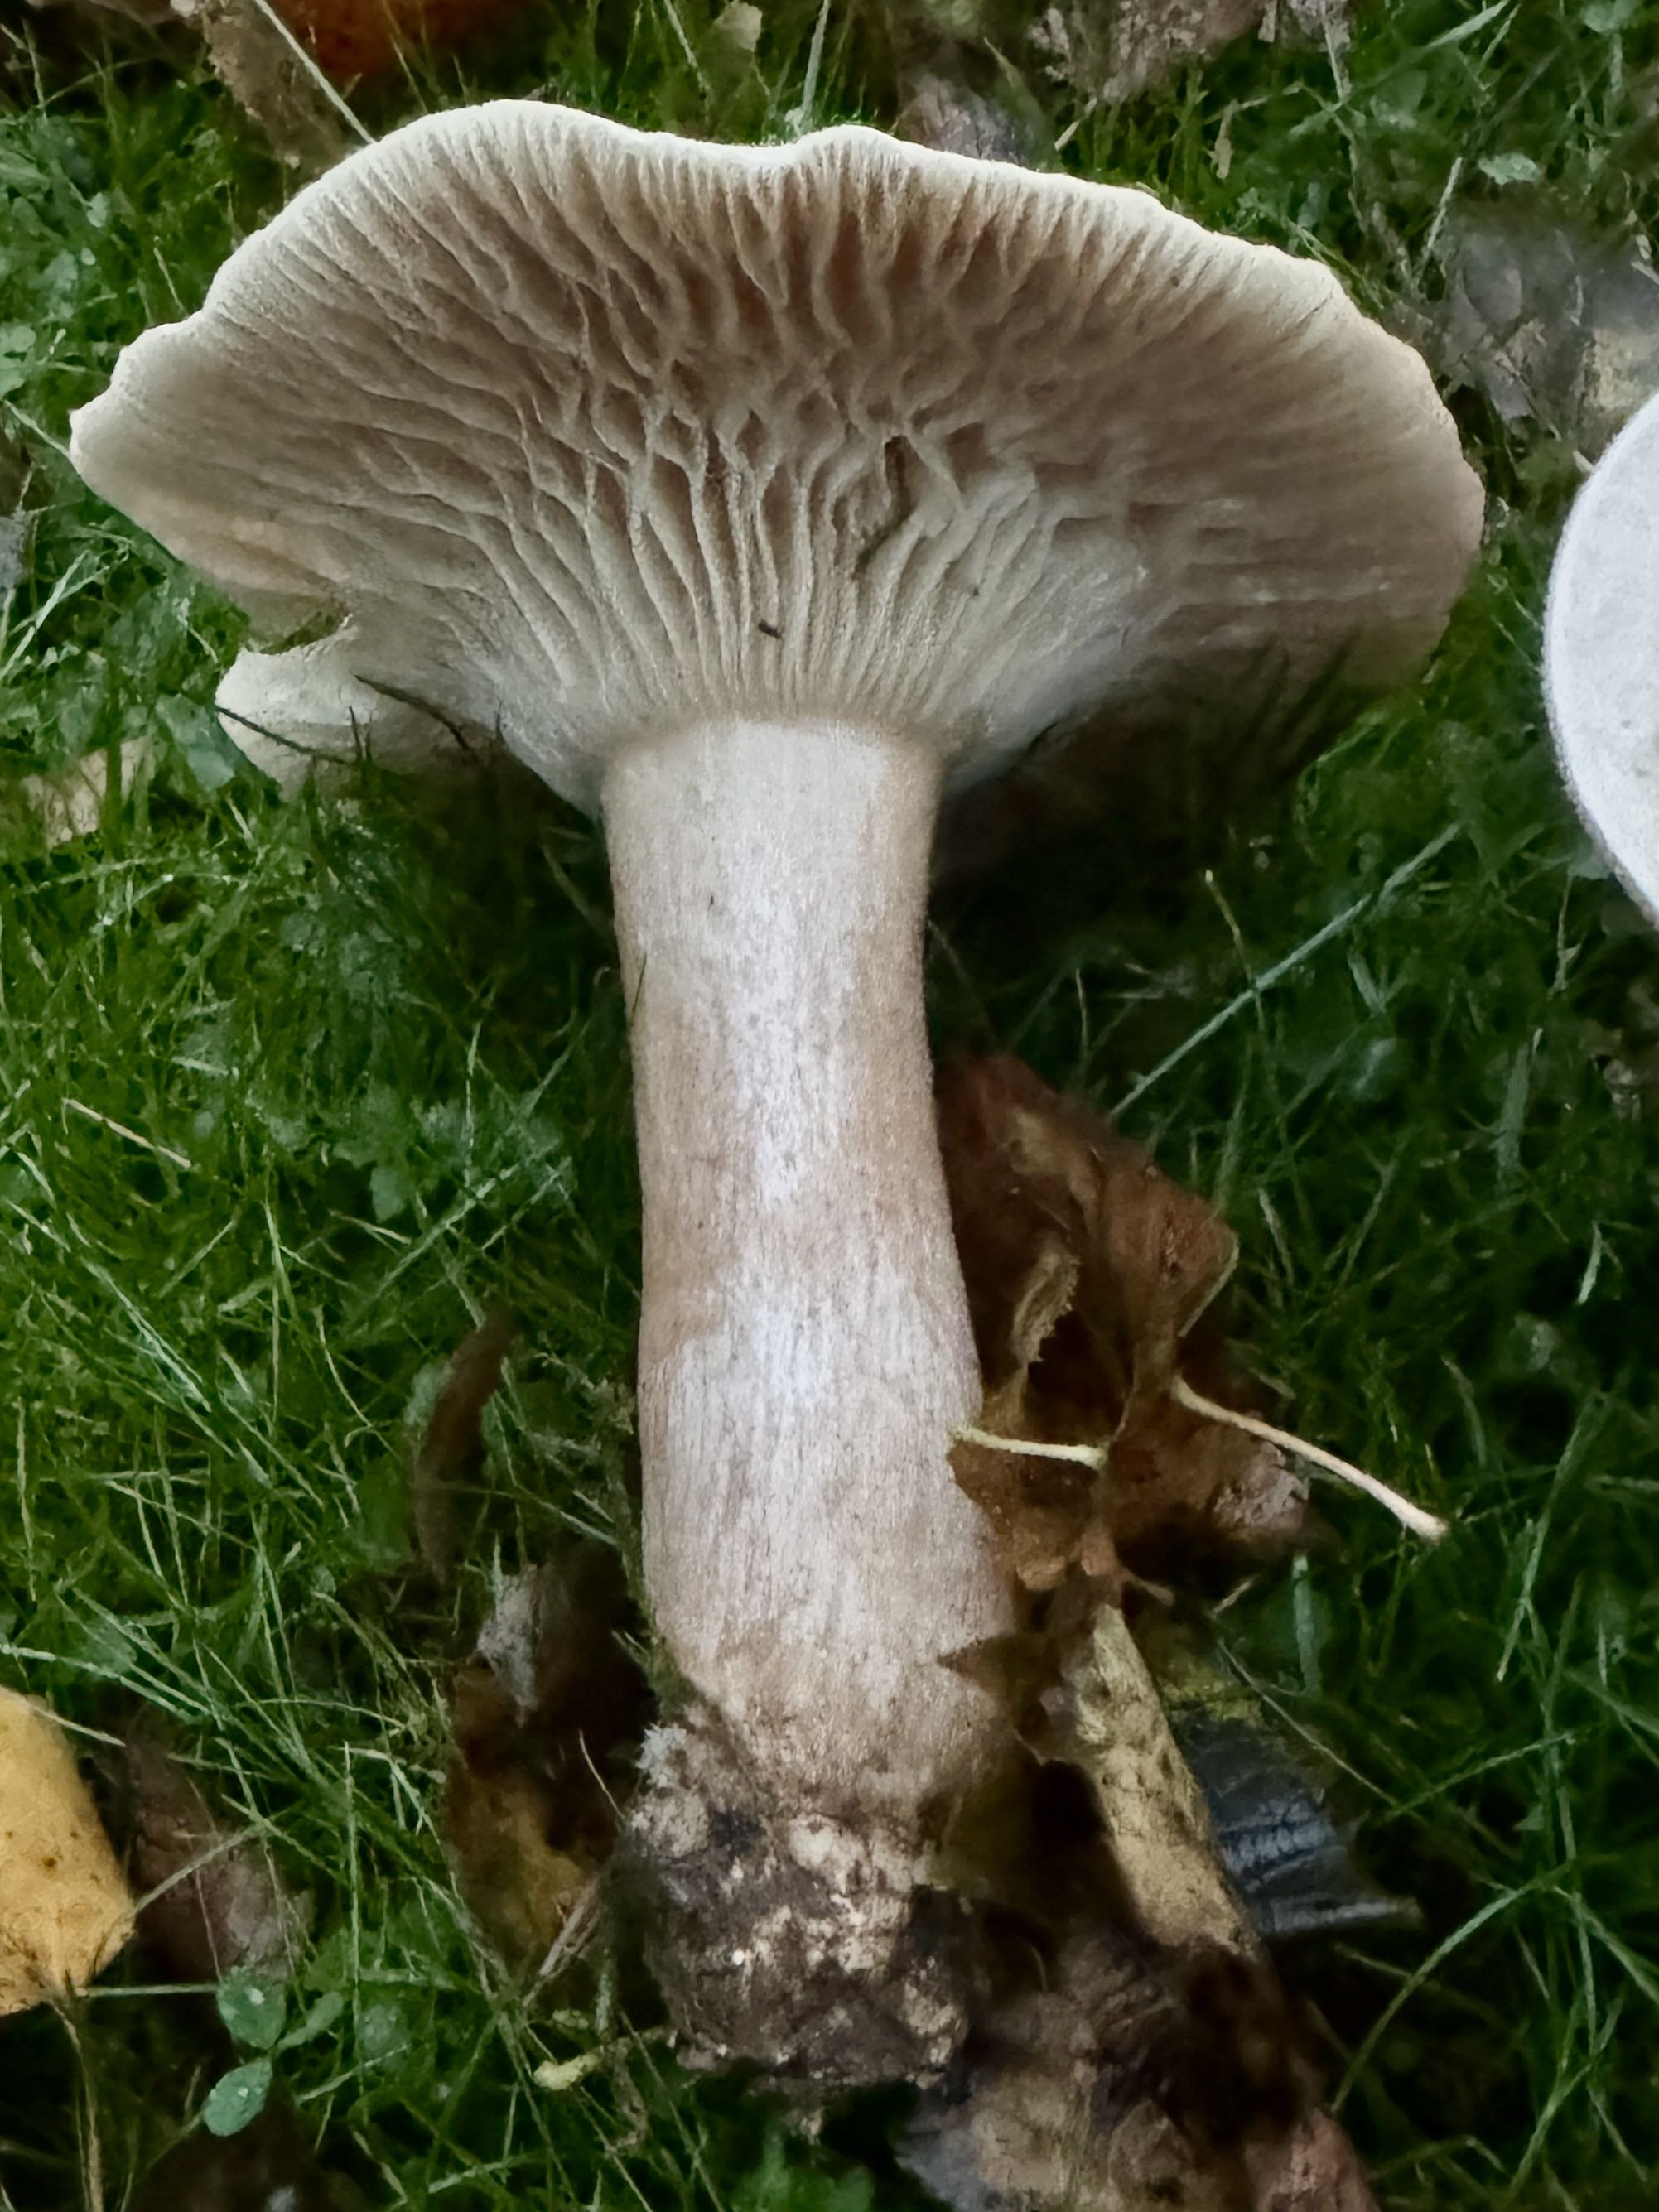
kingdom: Fungi
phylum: Basidiomycota
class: Agaricomycetes
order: Agaricales
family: Tricholomataceae
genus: Infundibulicybe
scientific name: Infundibulicybe geotropa
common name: stor tragthat
